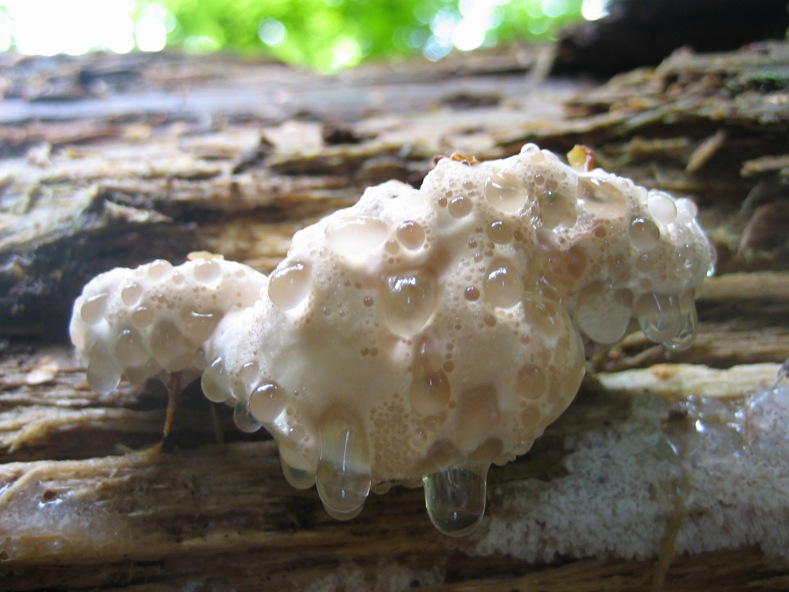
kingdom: Fungi
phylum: Basidiomycota
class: Agaricomycetes
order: Polyporales
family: Dacryobolaceae
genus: Postia
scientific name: Postia tephroleuca
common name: grålig kødporesvamp
